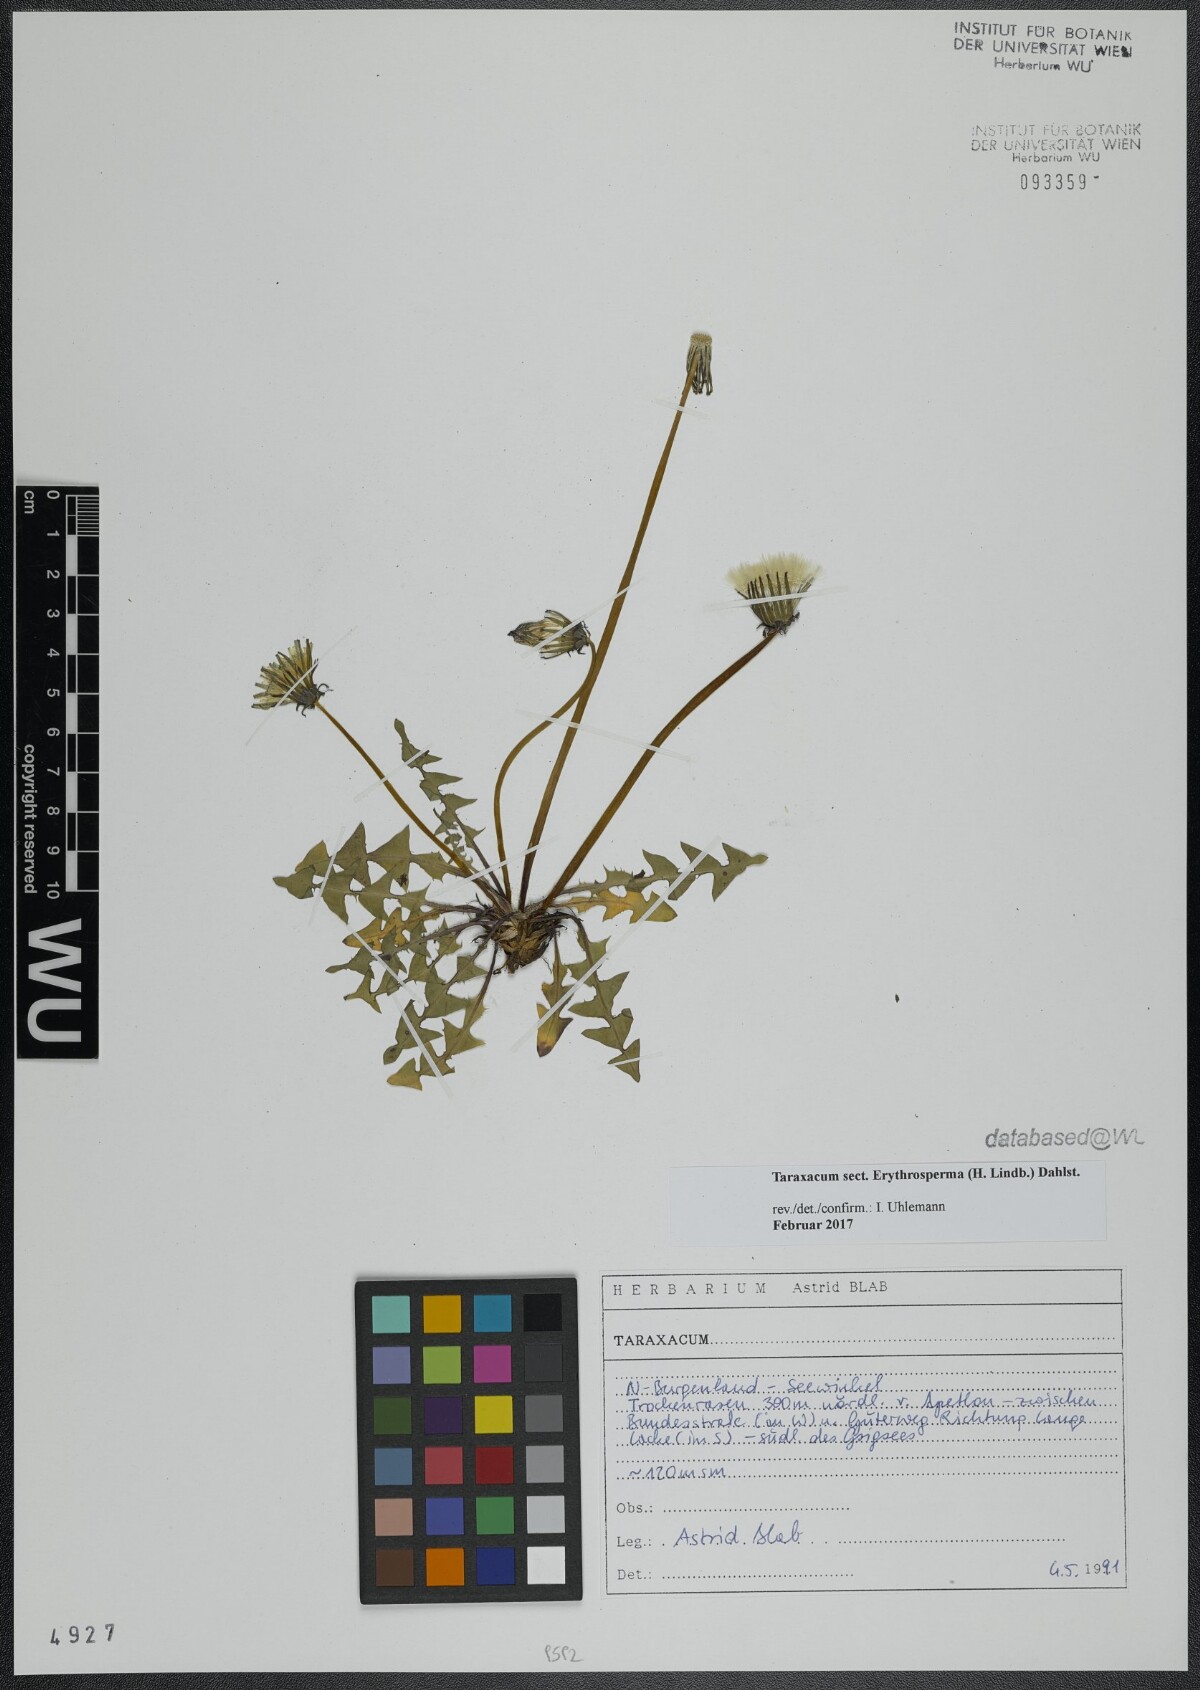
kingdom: Plantae
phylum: Tracheophyta
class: Magnoliopsida
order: Asterales
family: Asteraceae
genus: Taraxacum
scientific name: Taraxacum
